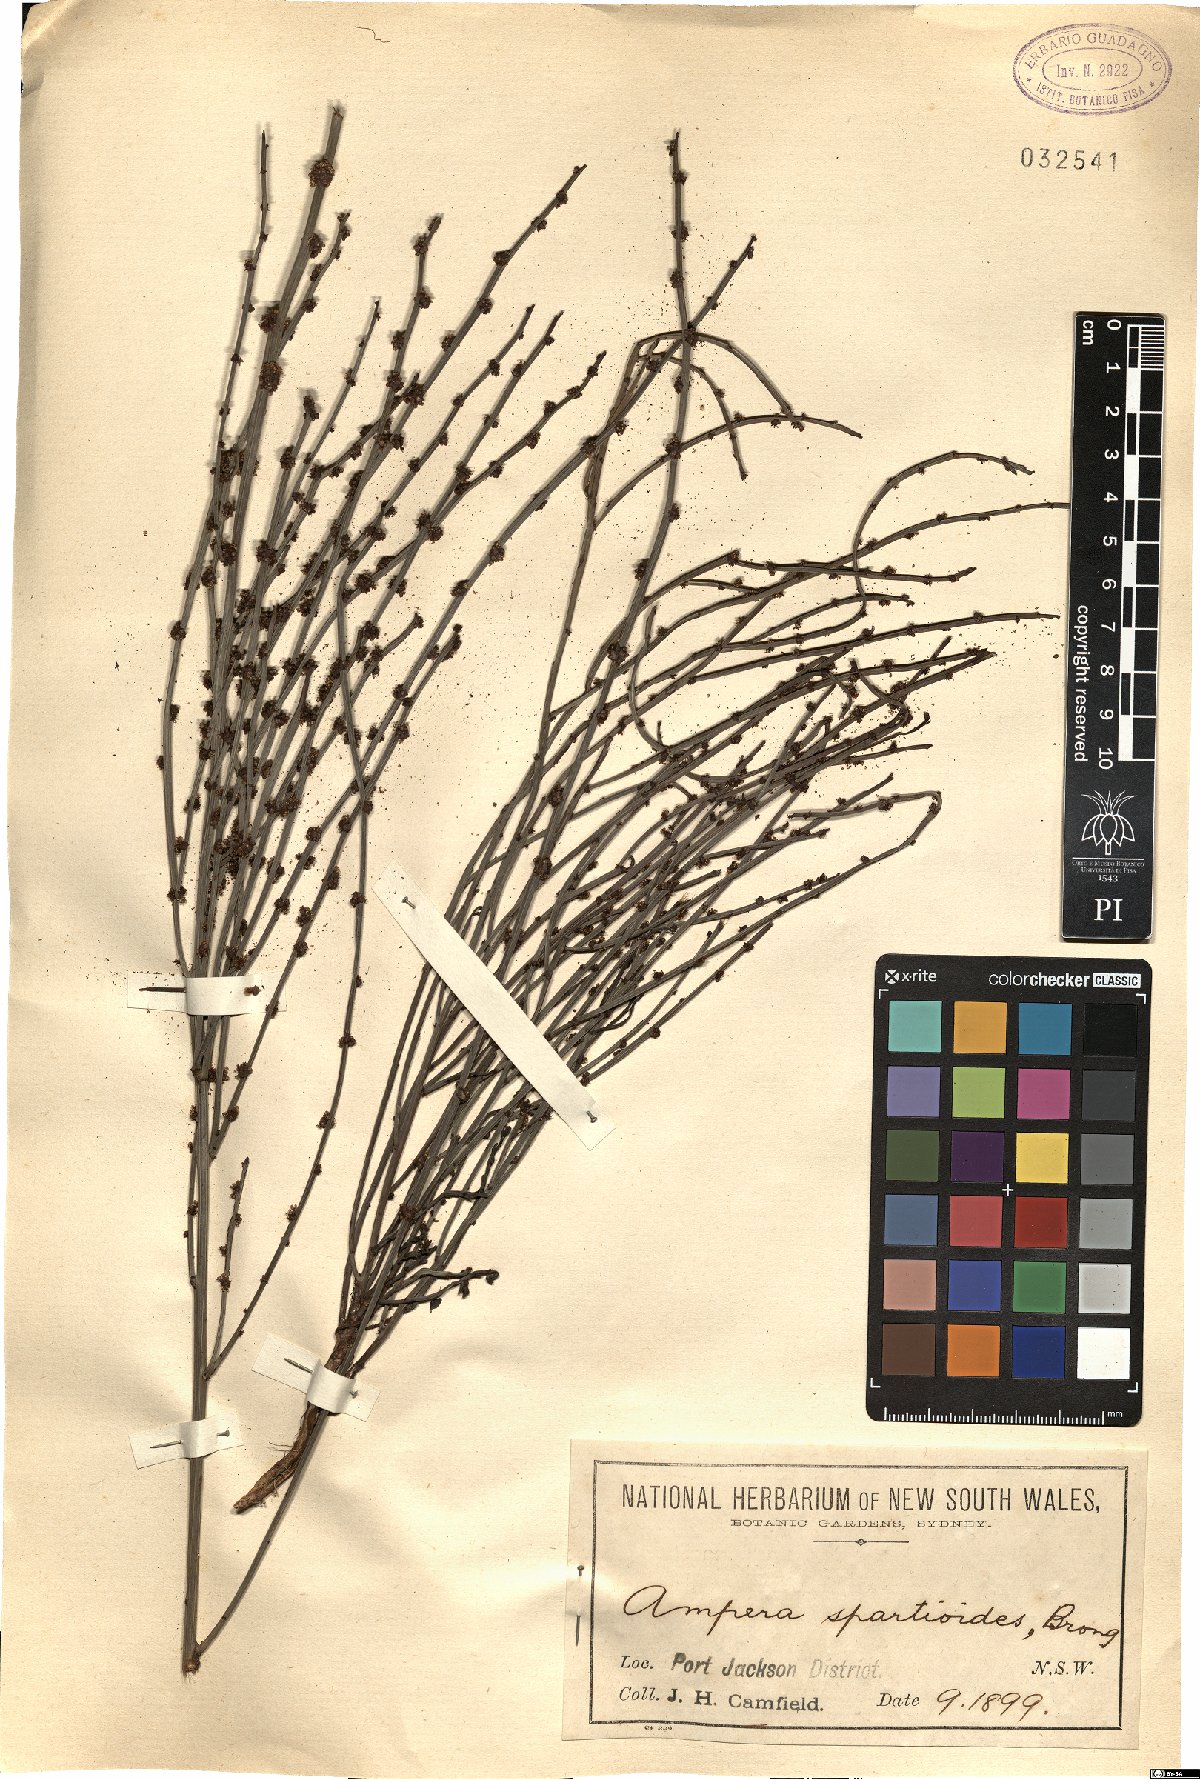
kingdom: Plantae
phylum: Tracheophyta
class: Magnoliopsida
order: Malpighiales
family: Euphorbiaceae
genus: Amperea
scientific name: Amperea xiphoclada
